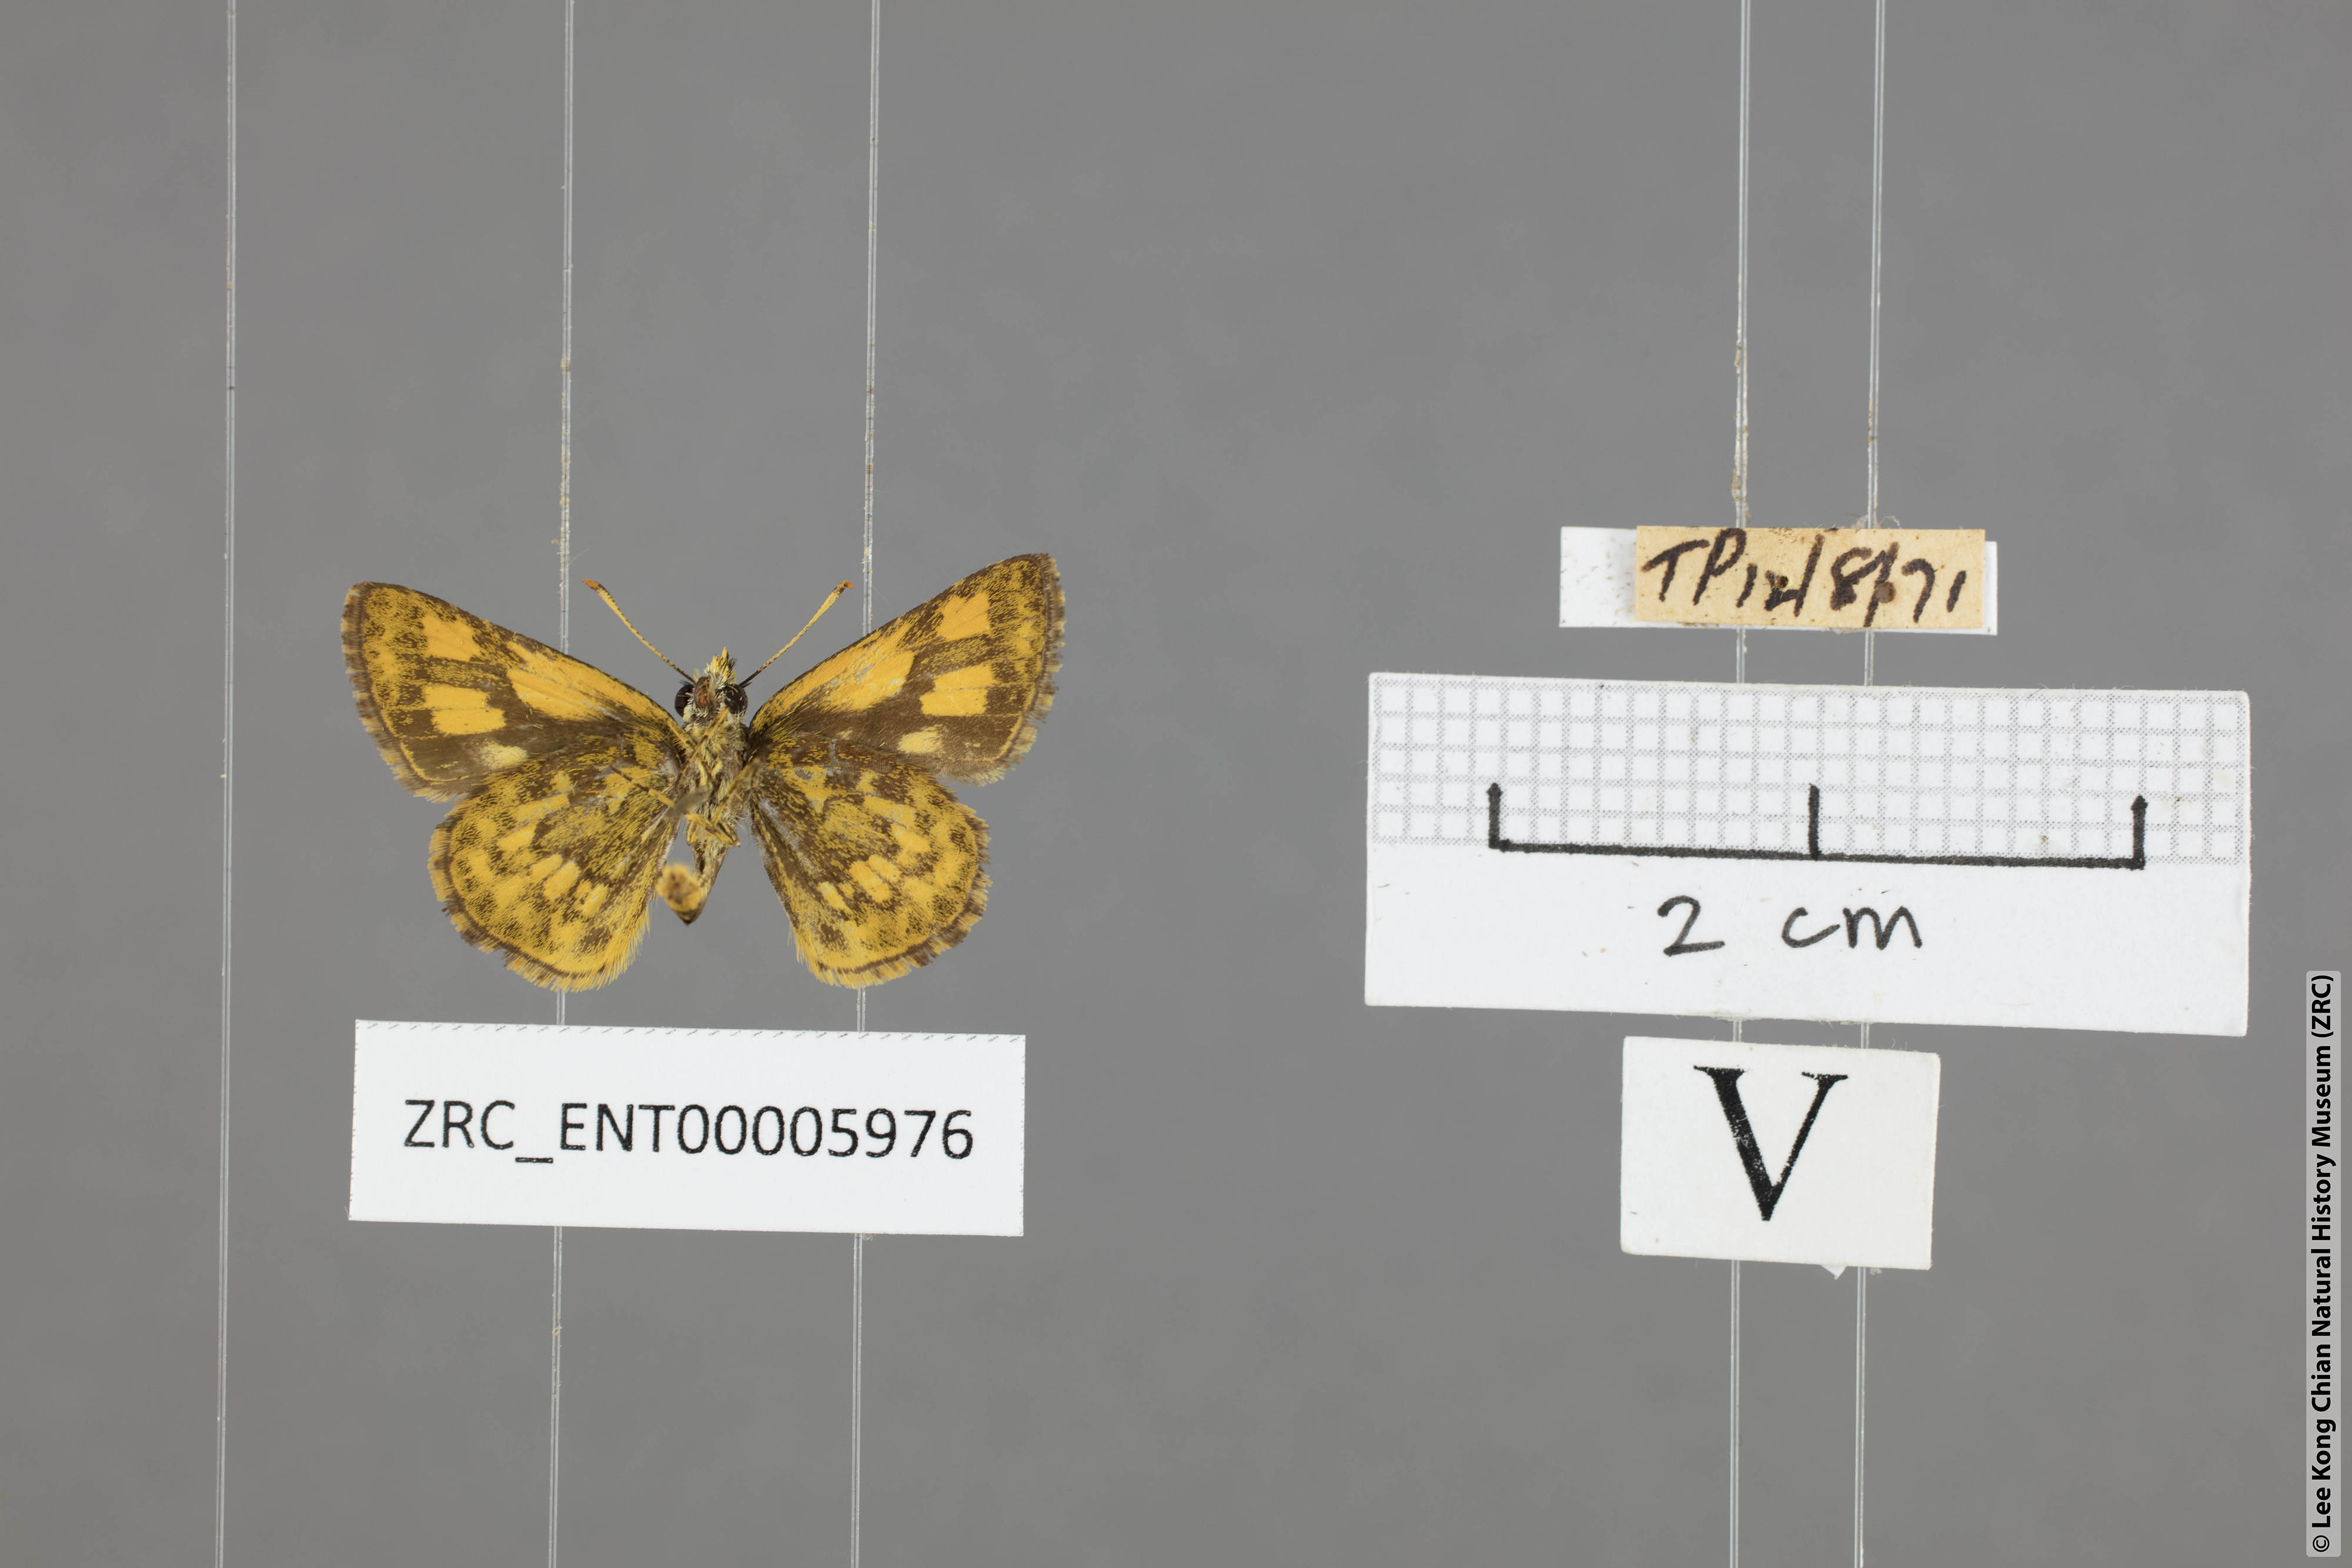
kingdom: Animalia
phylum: Arthropoda
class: Insecta
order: Lepidoptera
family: Hesperiidae
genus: Ampittia
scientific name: Ampittia dioscorides
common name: Common bush hopper
